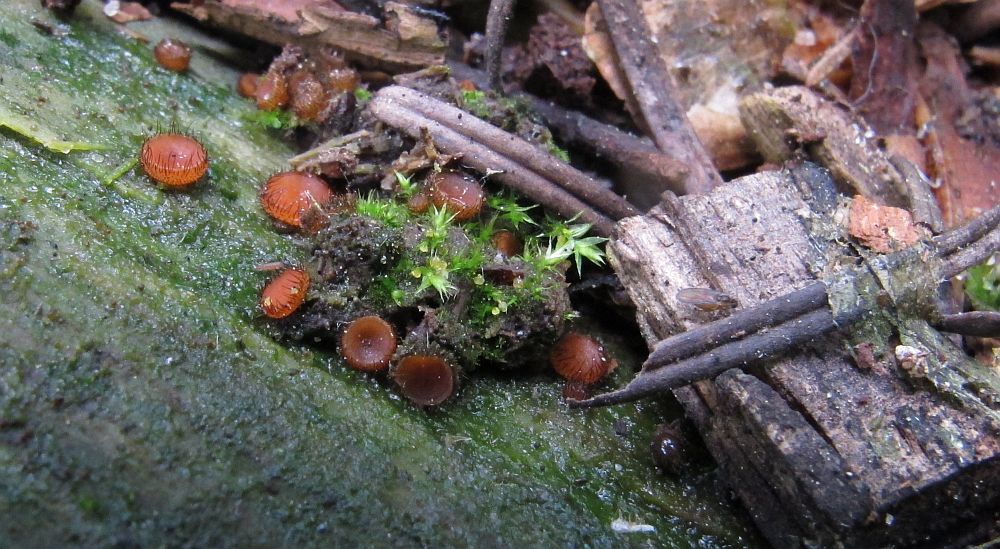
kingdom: Fungi
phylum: Ascomycota
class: Pezizomycetes
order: Pezizales
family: Pyronemataceae
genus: Scutellinia
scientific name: Scutellinia scutellata
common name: frynset skjoldbæger
